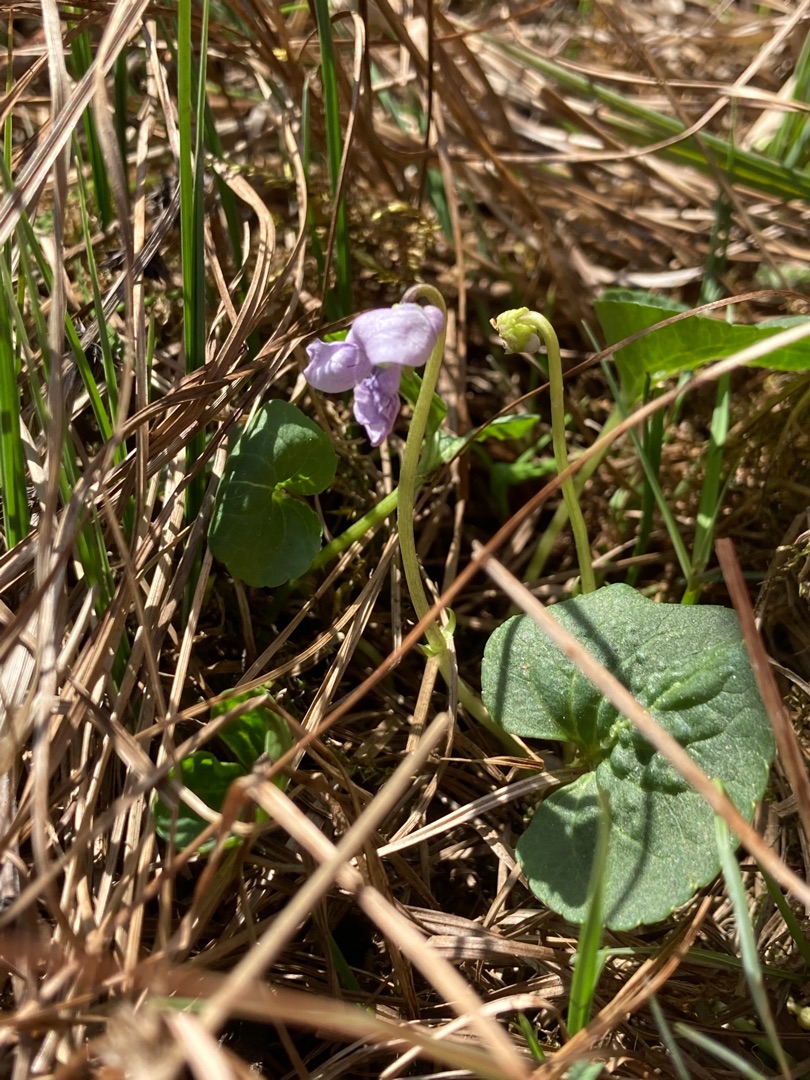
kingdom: Plantae
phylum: Tracheophyta
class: Magnoliopsida
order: Malpighiales
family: Violaceae
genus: Viola
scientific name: Viola palustris
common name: Eng-viol
